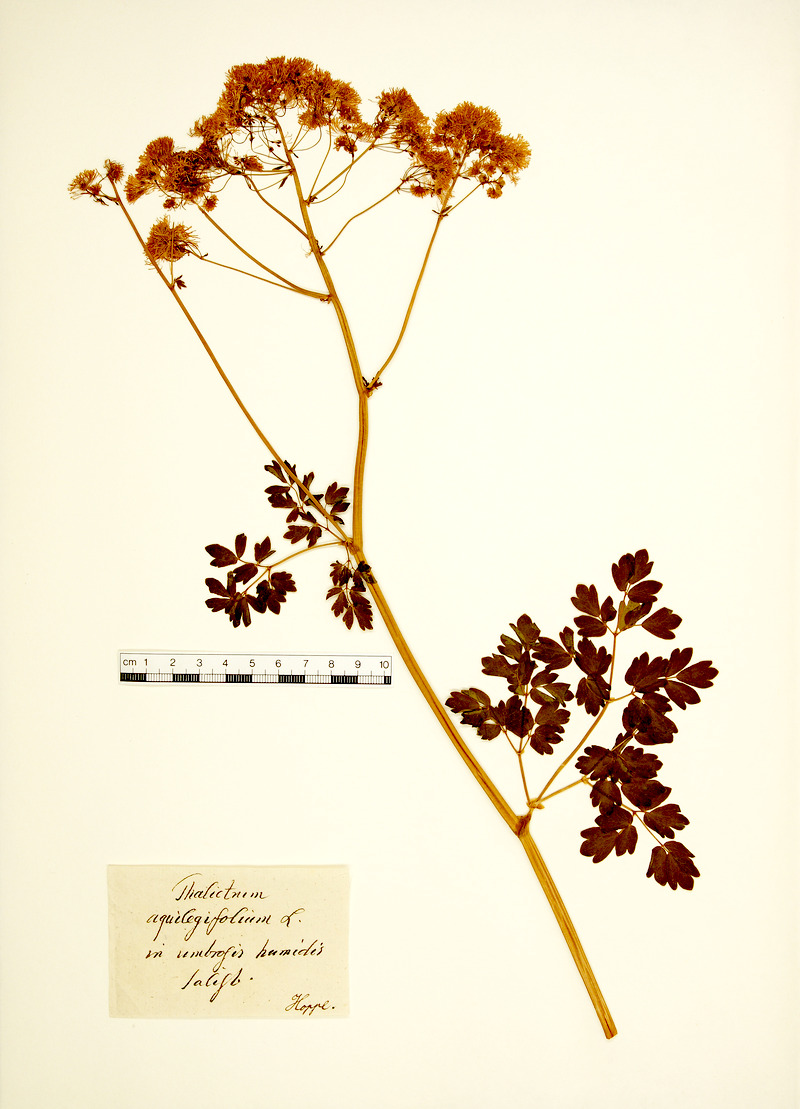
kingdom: Plantae
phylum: Tracheophyta
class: Magnoliopsida
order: Ranunculales
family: Ranunculaceae
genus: Thalictrum
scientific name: Thalictrum aquilegiifolium
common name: French meadow-rue
